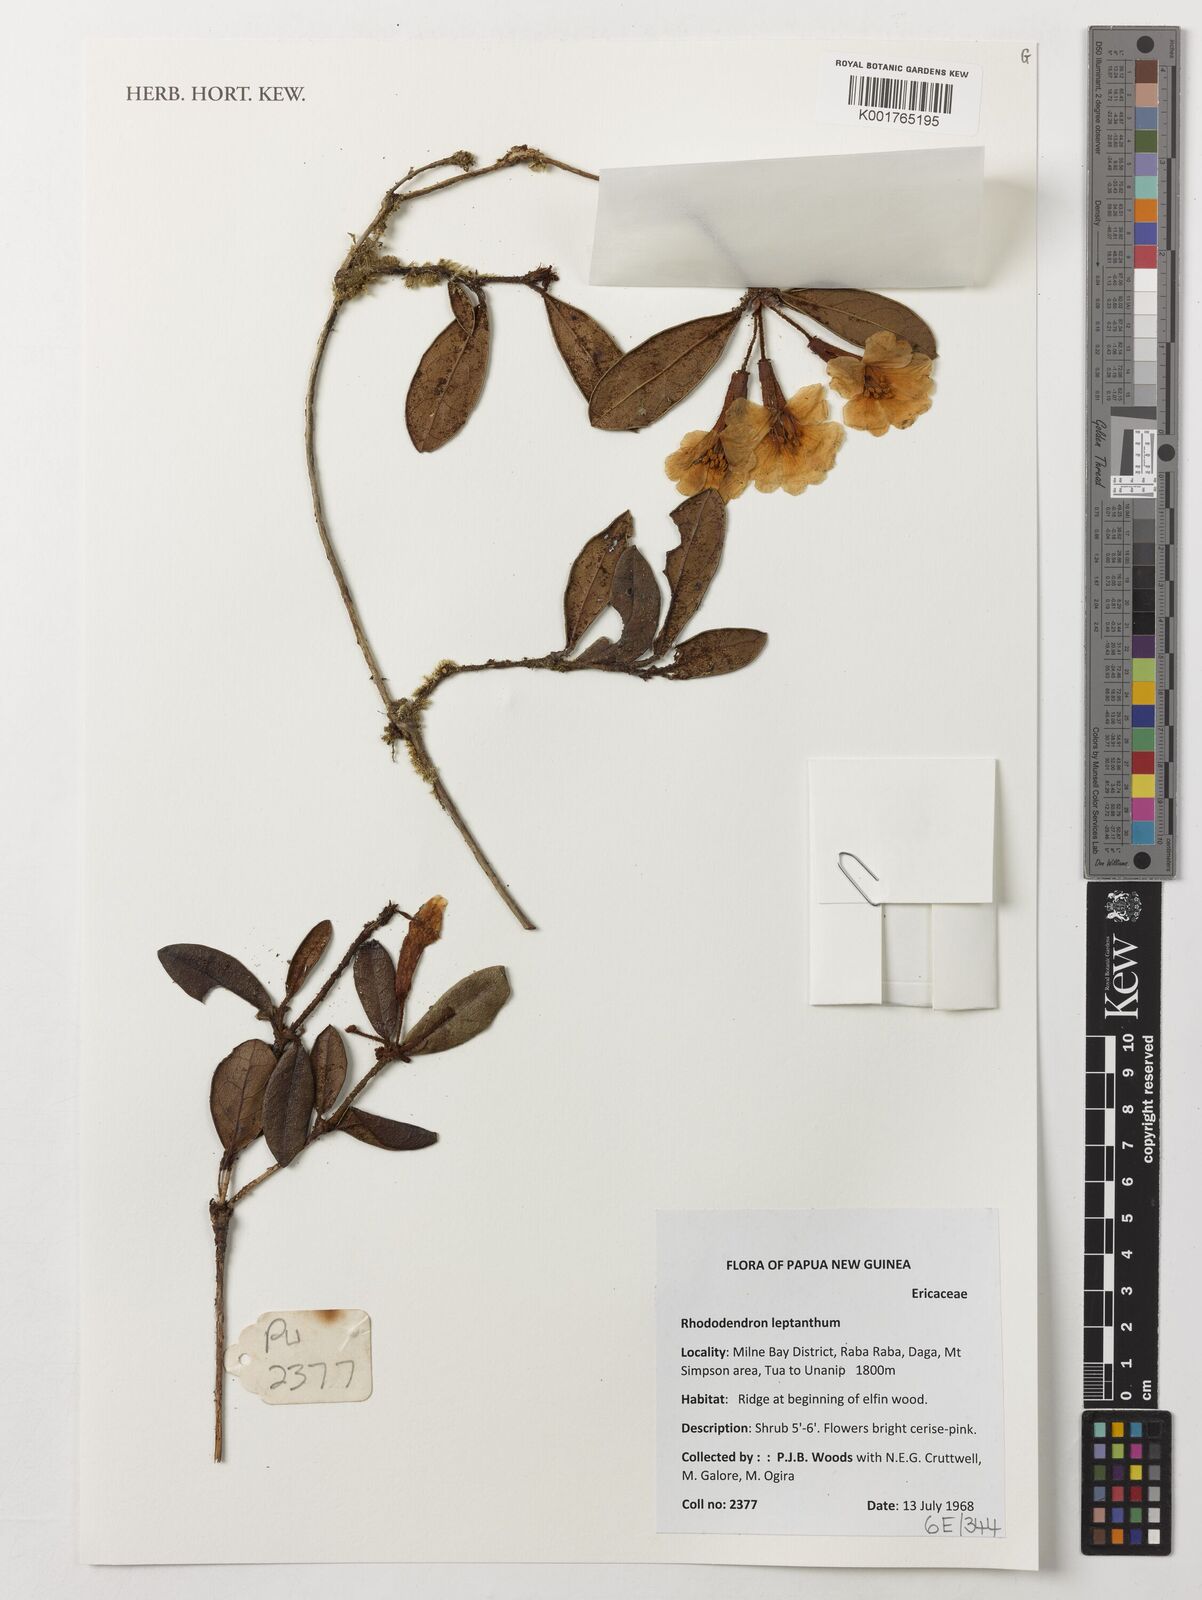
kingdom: Plantae
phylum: Tracheophyta
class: Magnoliopsida
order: Ericales
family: Ericaceae
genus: Rhododendron
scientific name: Rhododendron leptanthum
